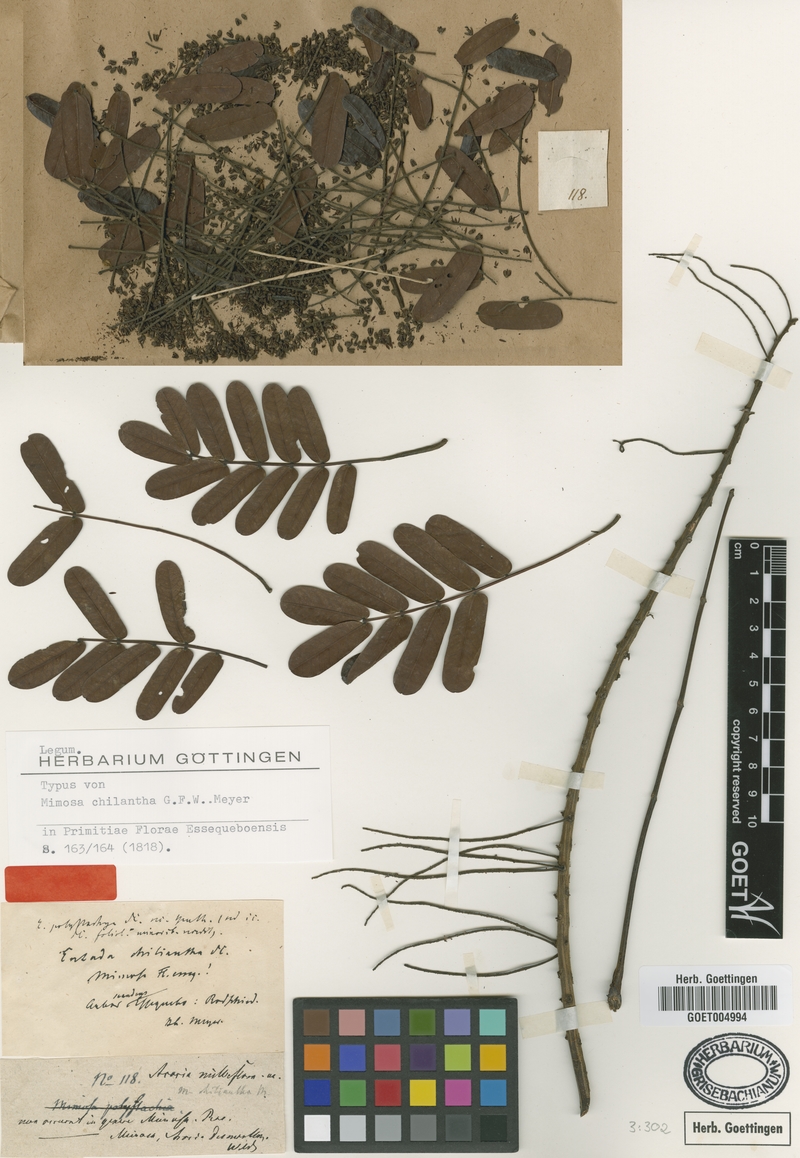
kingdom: Plantae
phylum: Tracheophyta
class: Magnoliopsida
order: Fabales
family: Fabaceae
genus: Entada
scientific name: Entada polystachya
